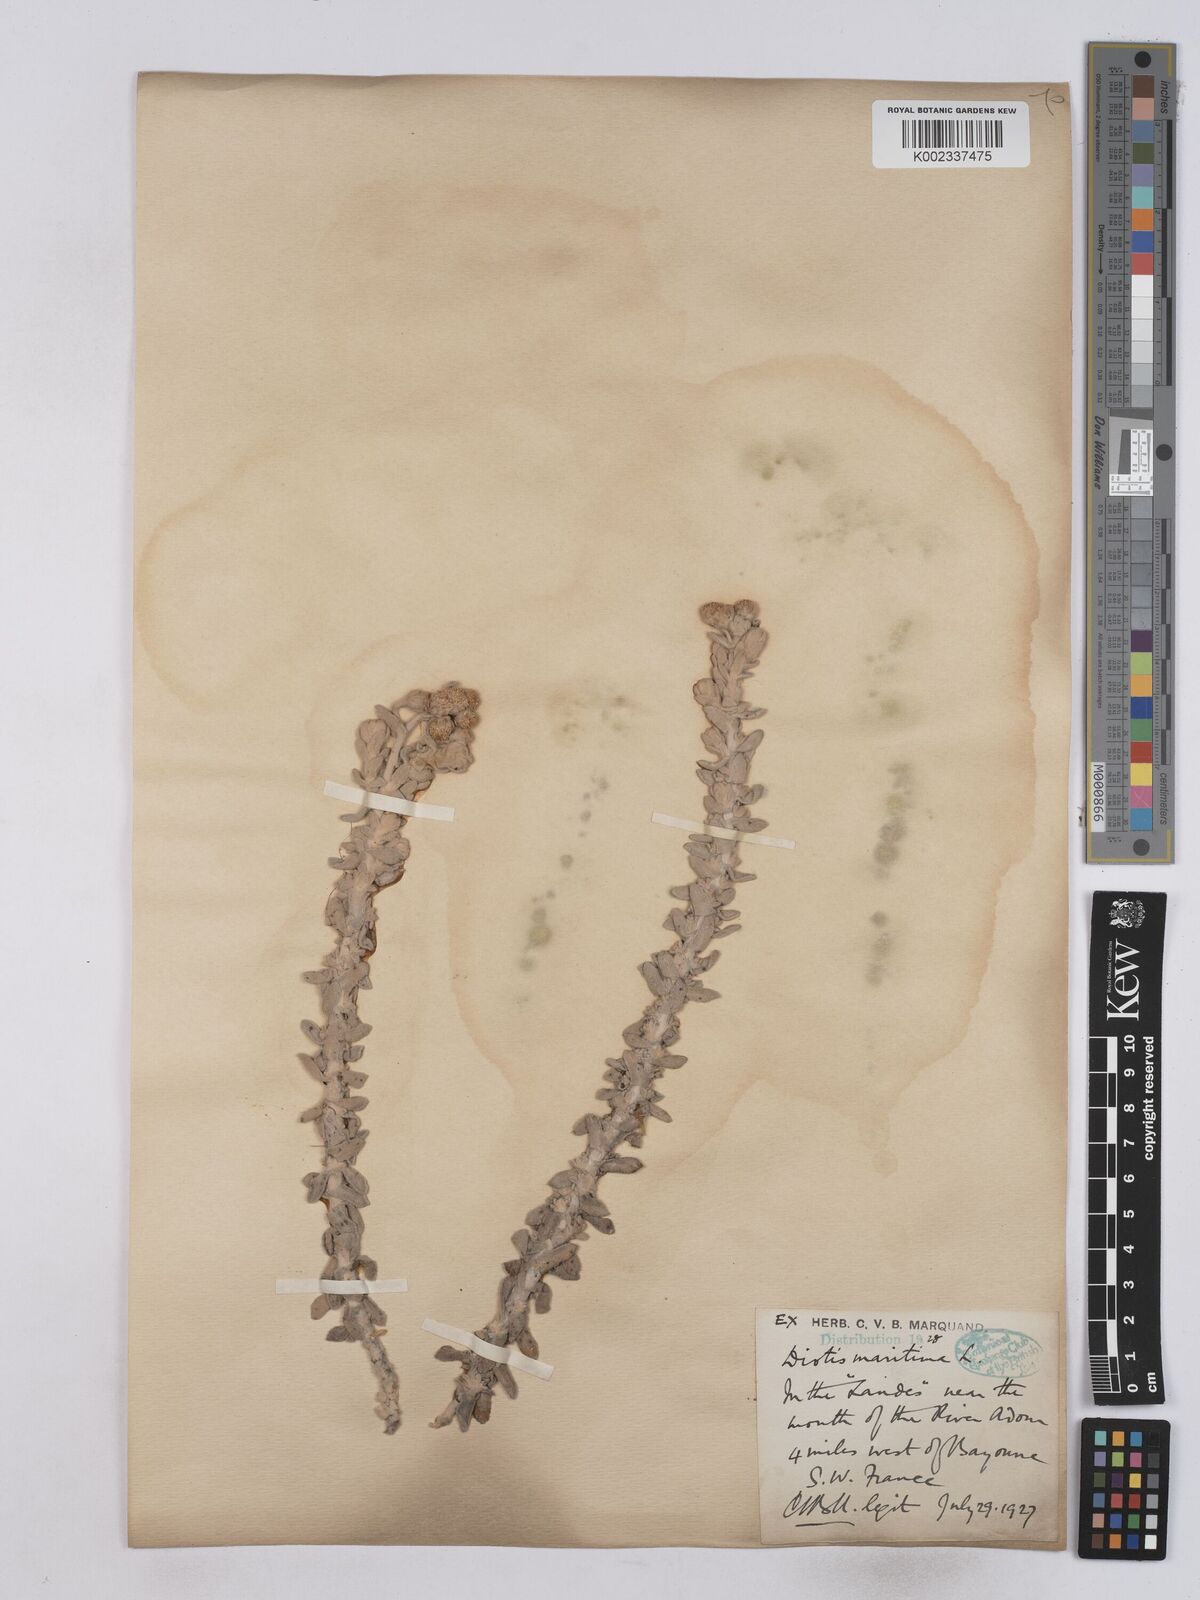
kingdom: Plantae
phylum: Tracheophyta
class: Magnoliopsida
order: Asterales
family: Asteraceae
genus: Achillea
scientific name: Achillea maritima
